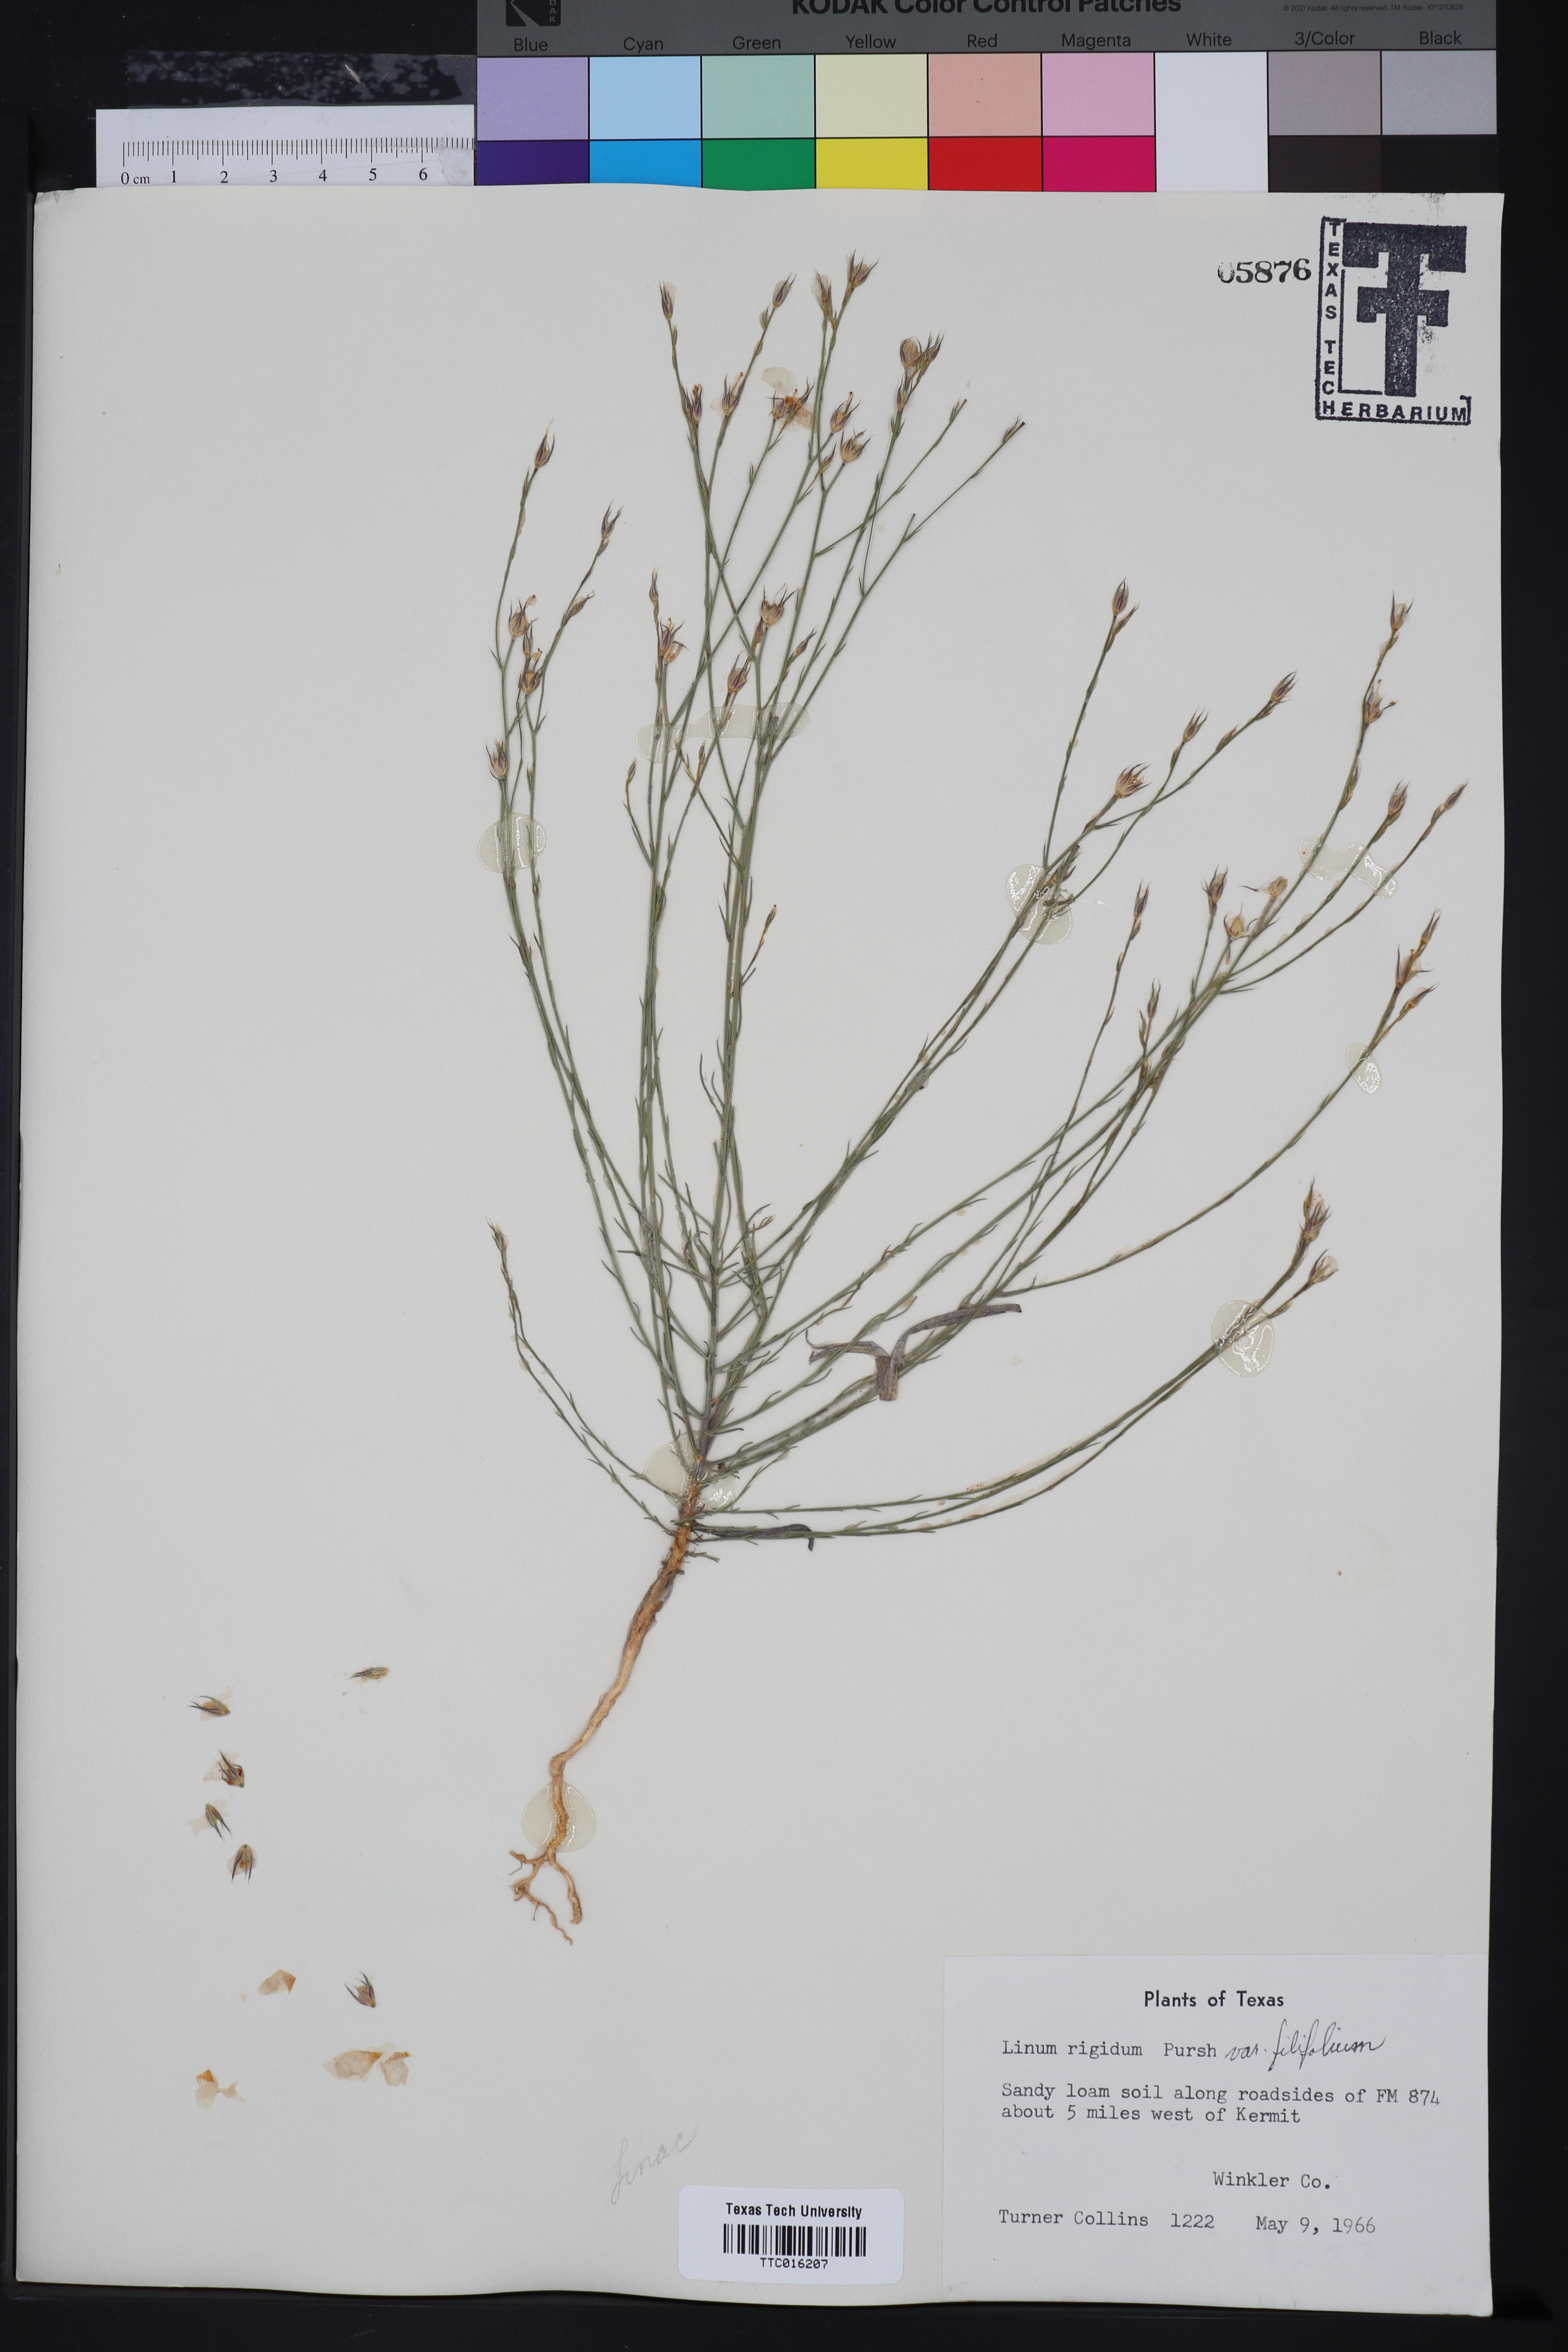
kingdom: Plantae
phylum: Tracheophyta
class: Magnoliopsida
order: Malpighiales
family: Linaceae
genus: Linum
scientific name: Linum berlandieri
